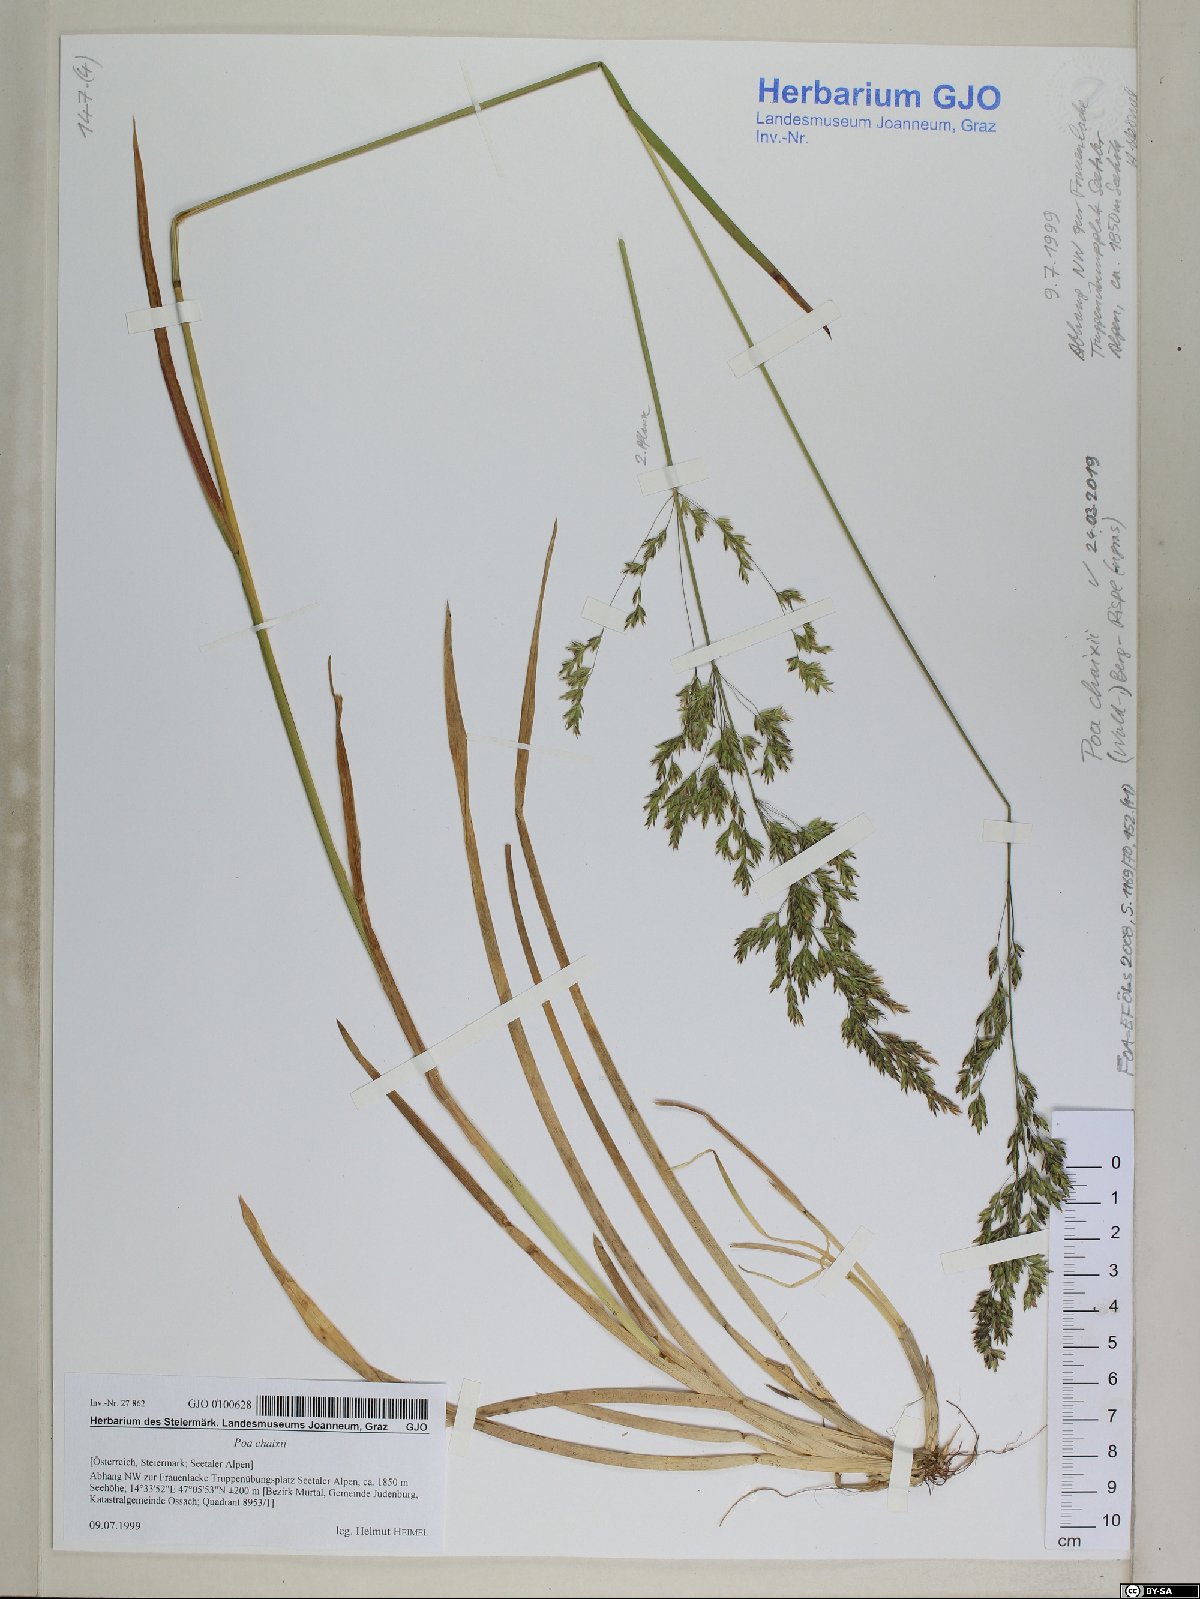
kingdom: Plantae
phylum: Tracheophyta
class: Liliopsida
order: Poales
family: Poaceae
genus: Poa
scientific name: Poa chaixii
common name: Broad-leaved meadow-grass
